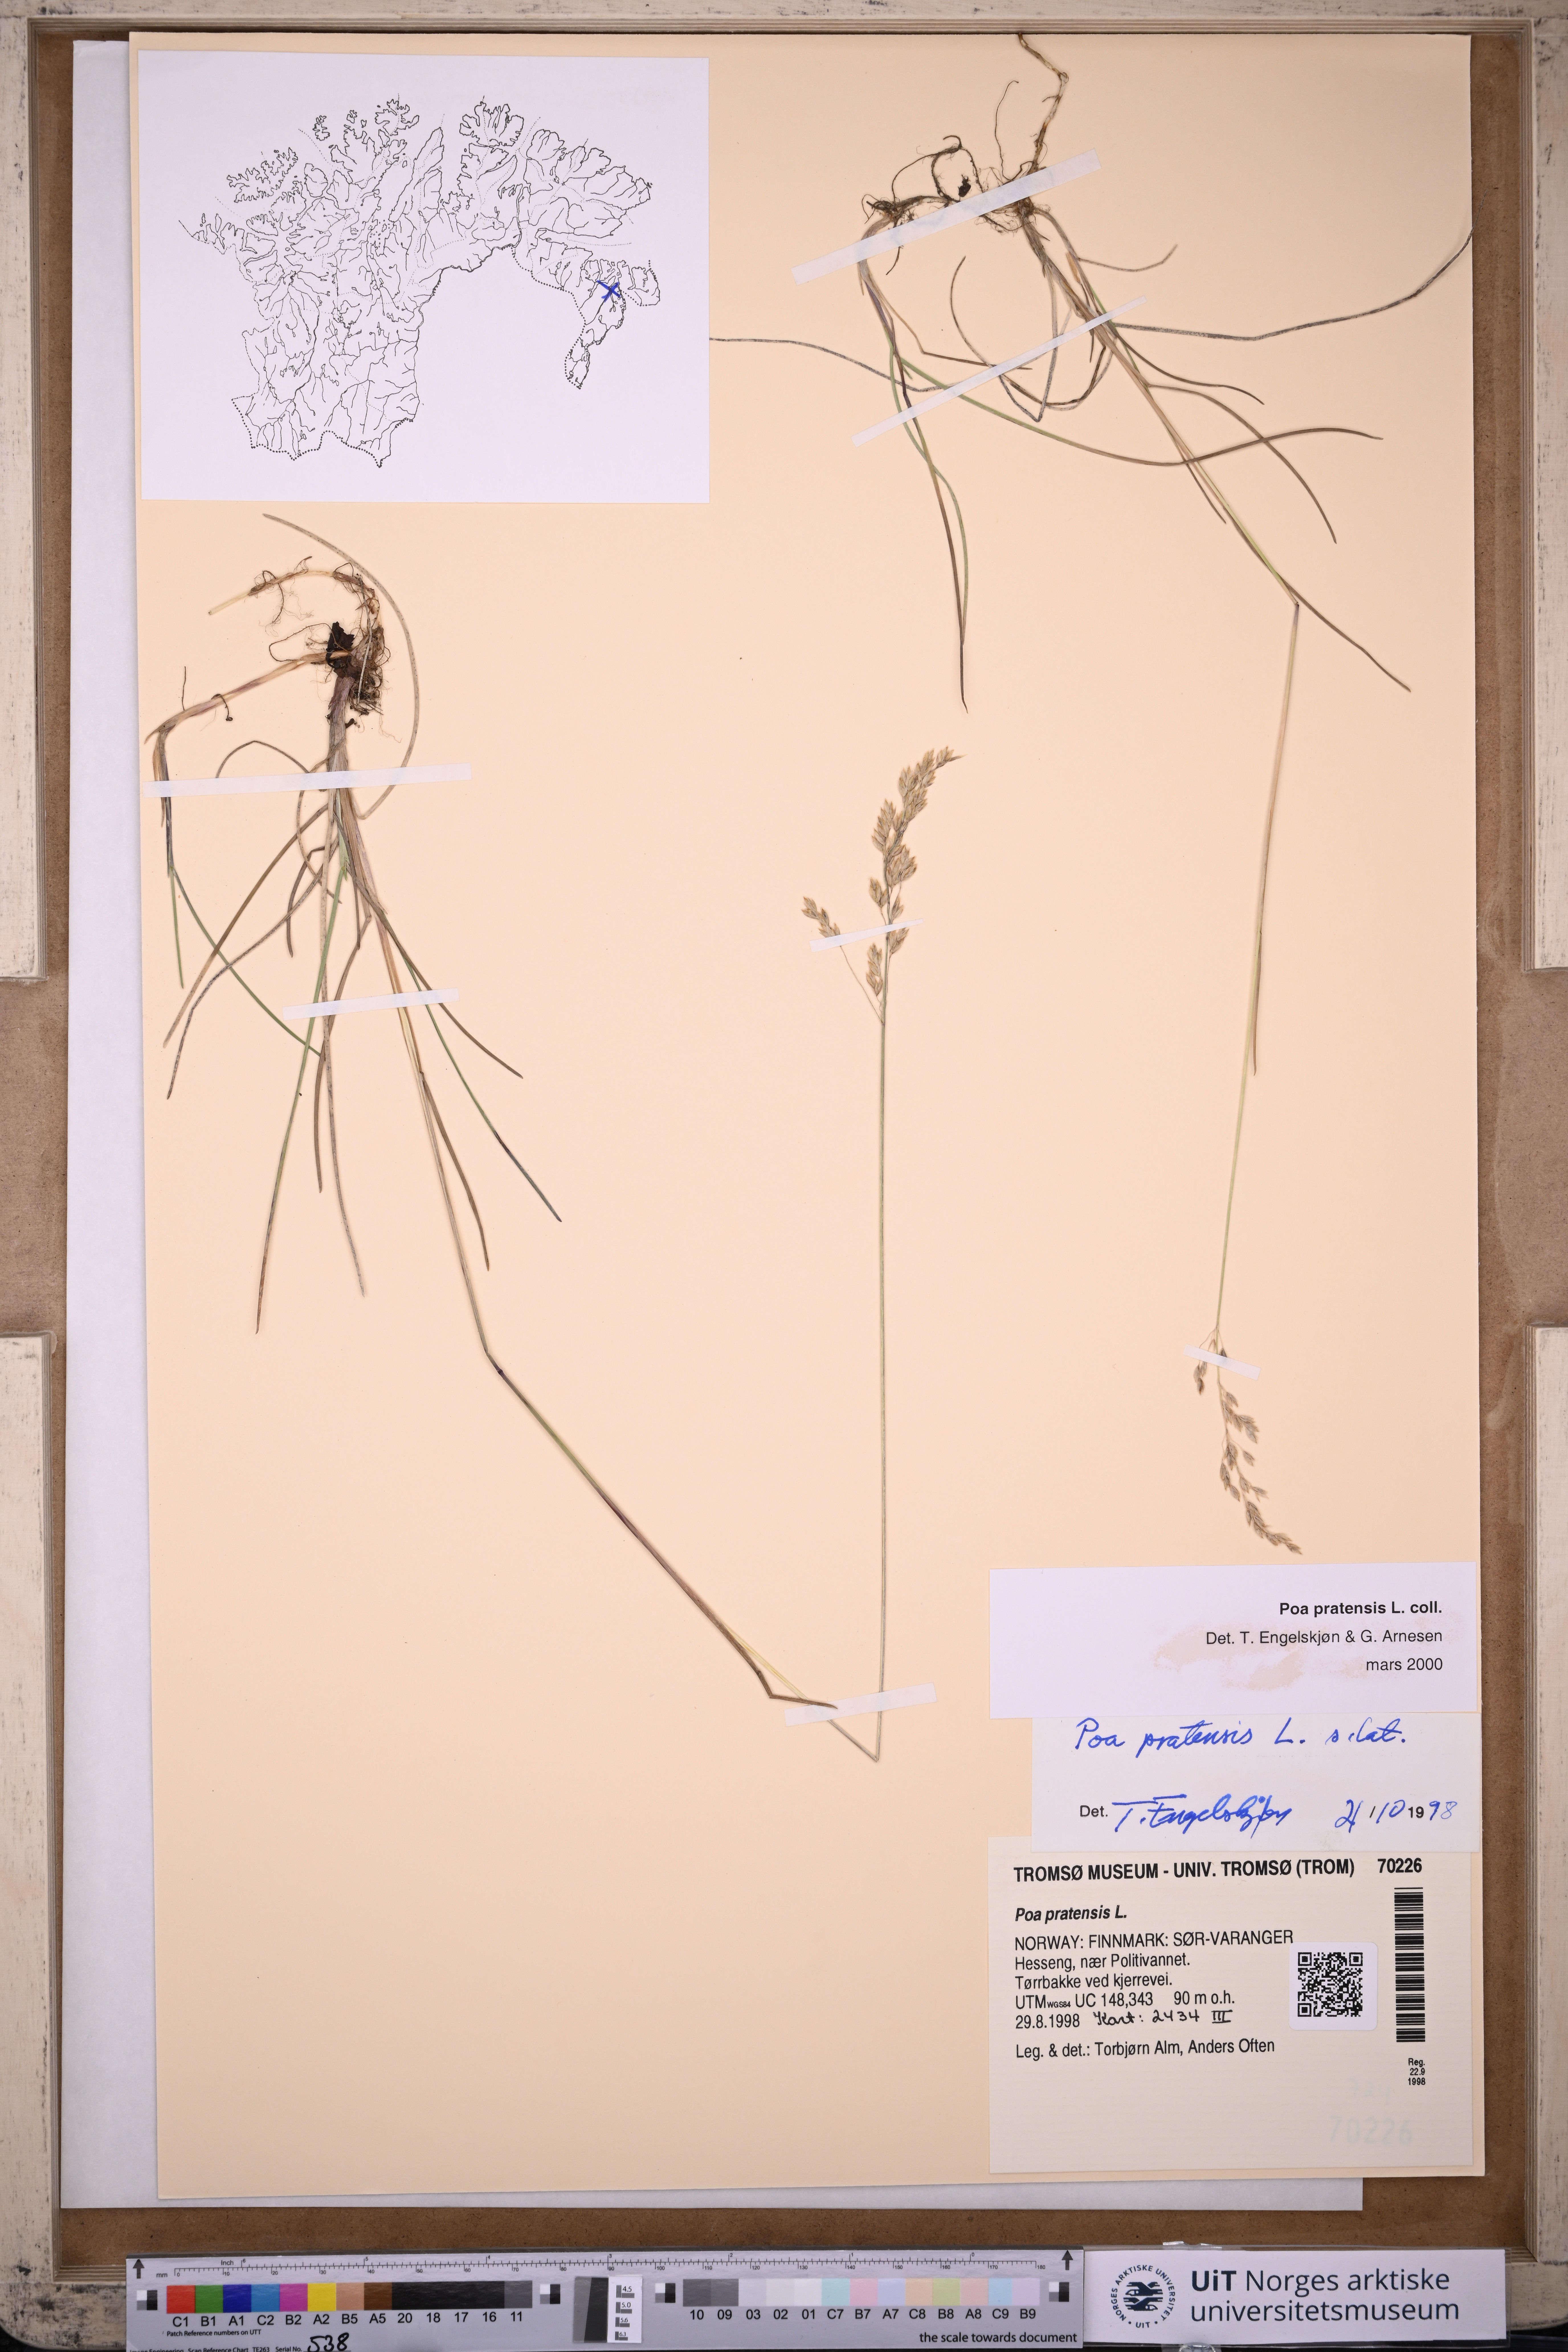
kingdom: Plantae
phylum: Tracheophyta
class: Liliopsida
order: Poales
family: Poaceae
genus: Poa
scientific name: Poa pratensis
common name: Kentucky bluegrass
